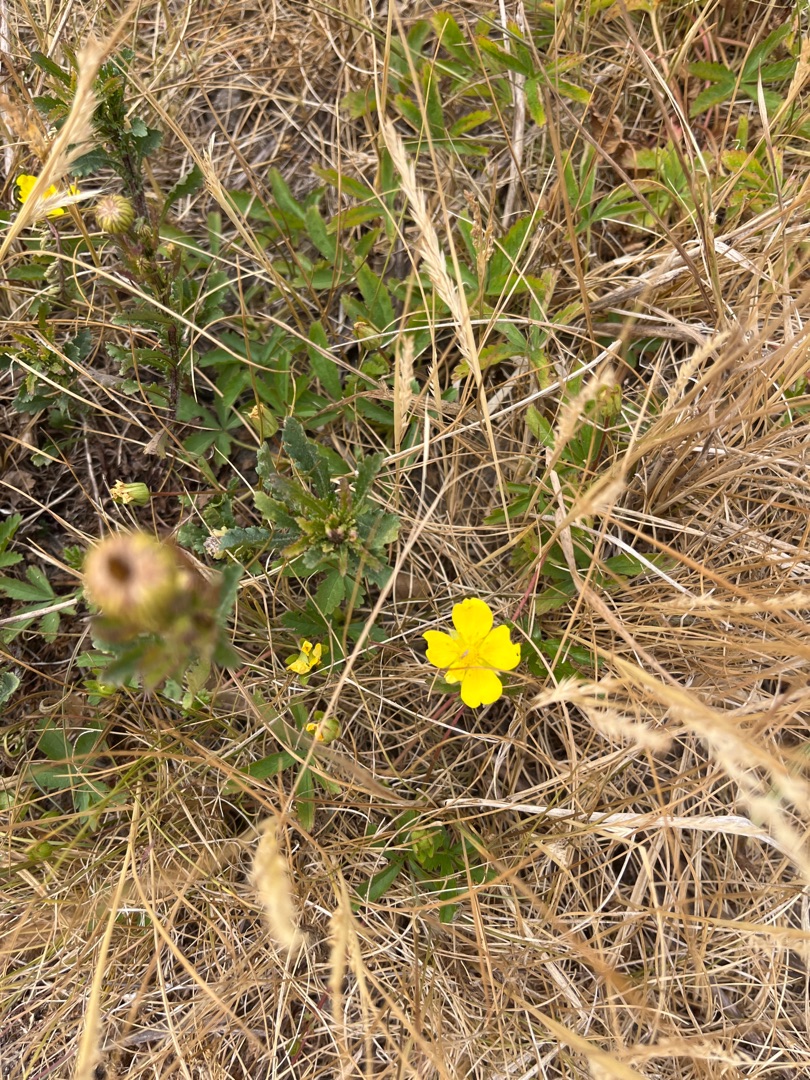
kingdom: Plantae
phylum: Tracheophyta
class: Magnoliopsida
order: Rosales
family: Rosaceae
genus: Potentilla
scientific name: Potentilla reptans
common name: Krybende potentil
